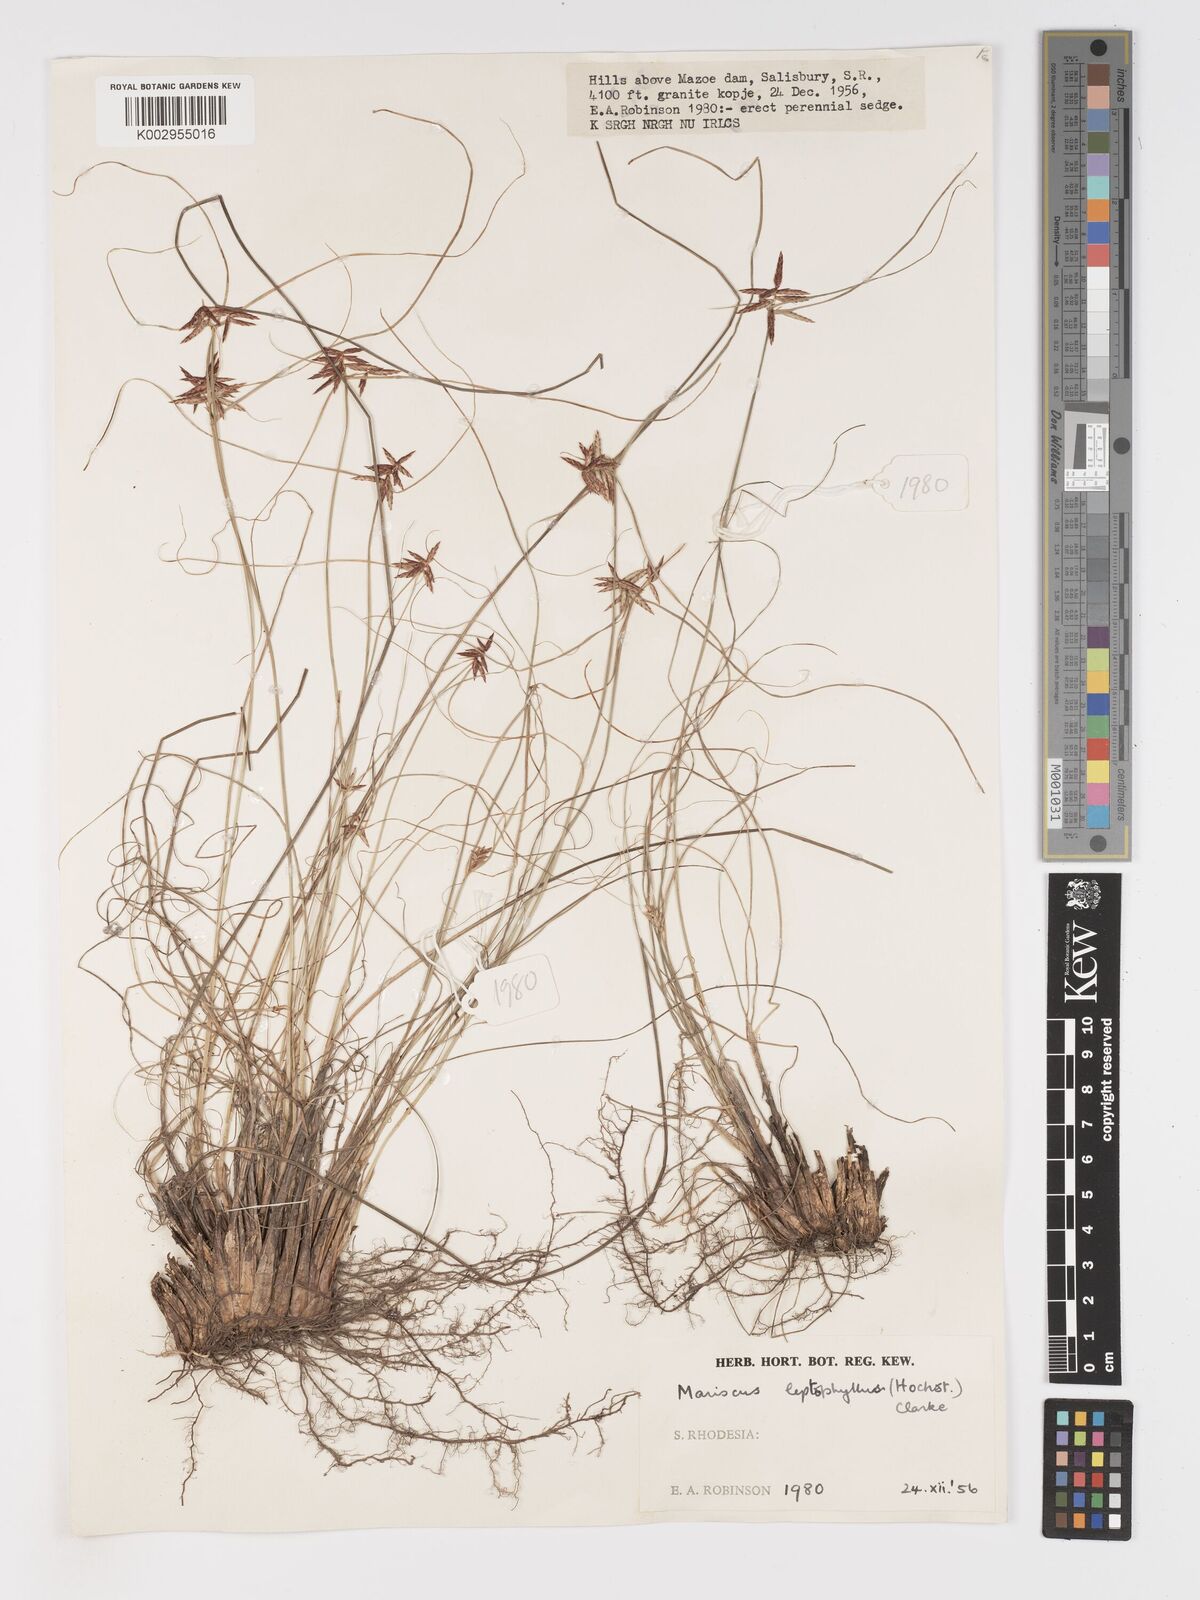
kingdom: Plantae
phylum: Tracheophyta
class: Liliopsida
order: Poales
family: Cyperaceae
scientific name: Cyperaceae
